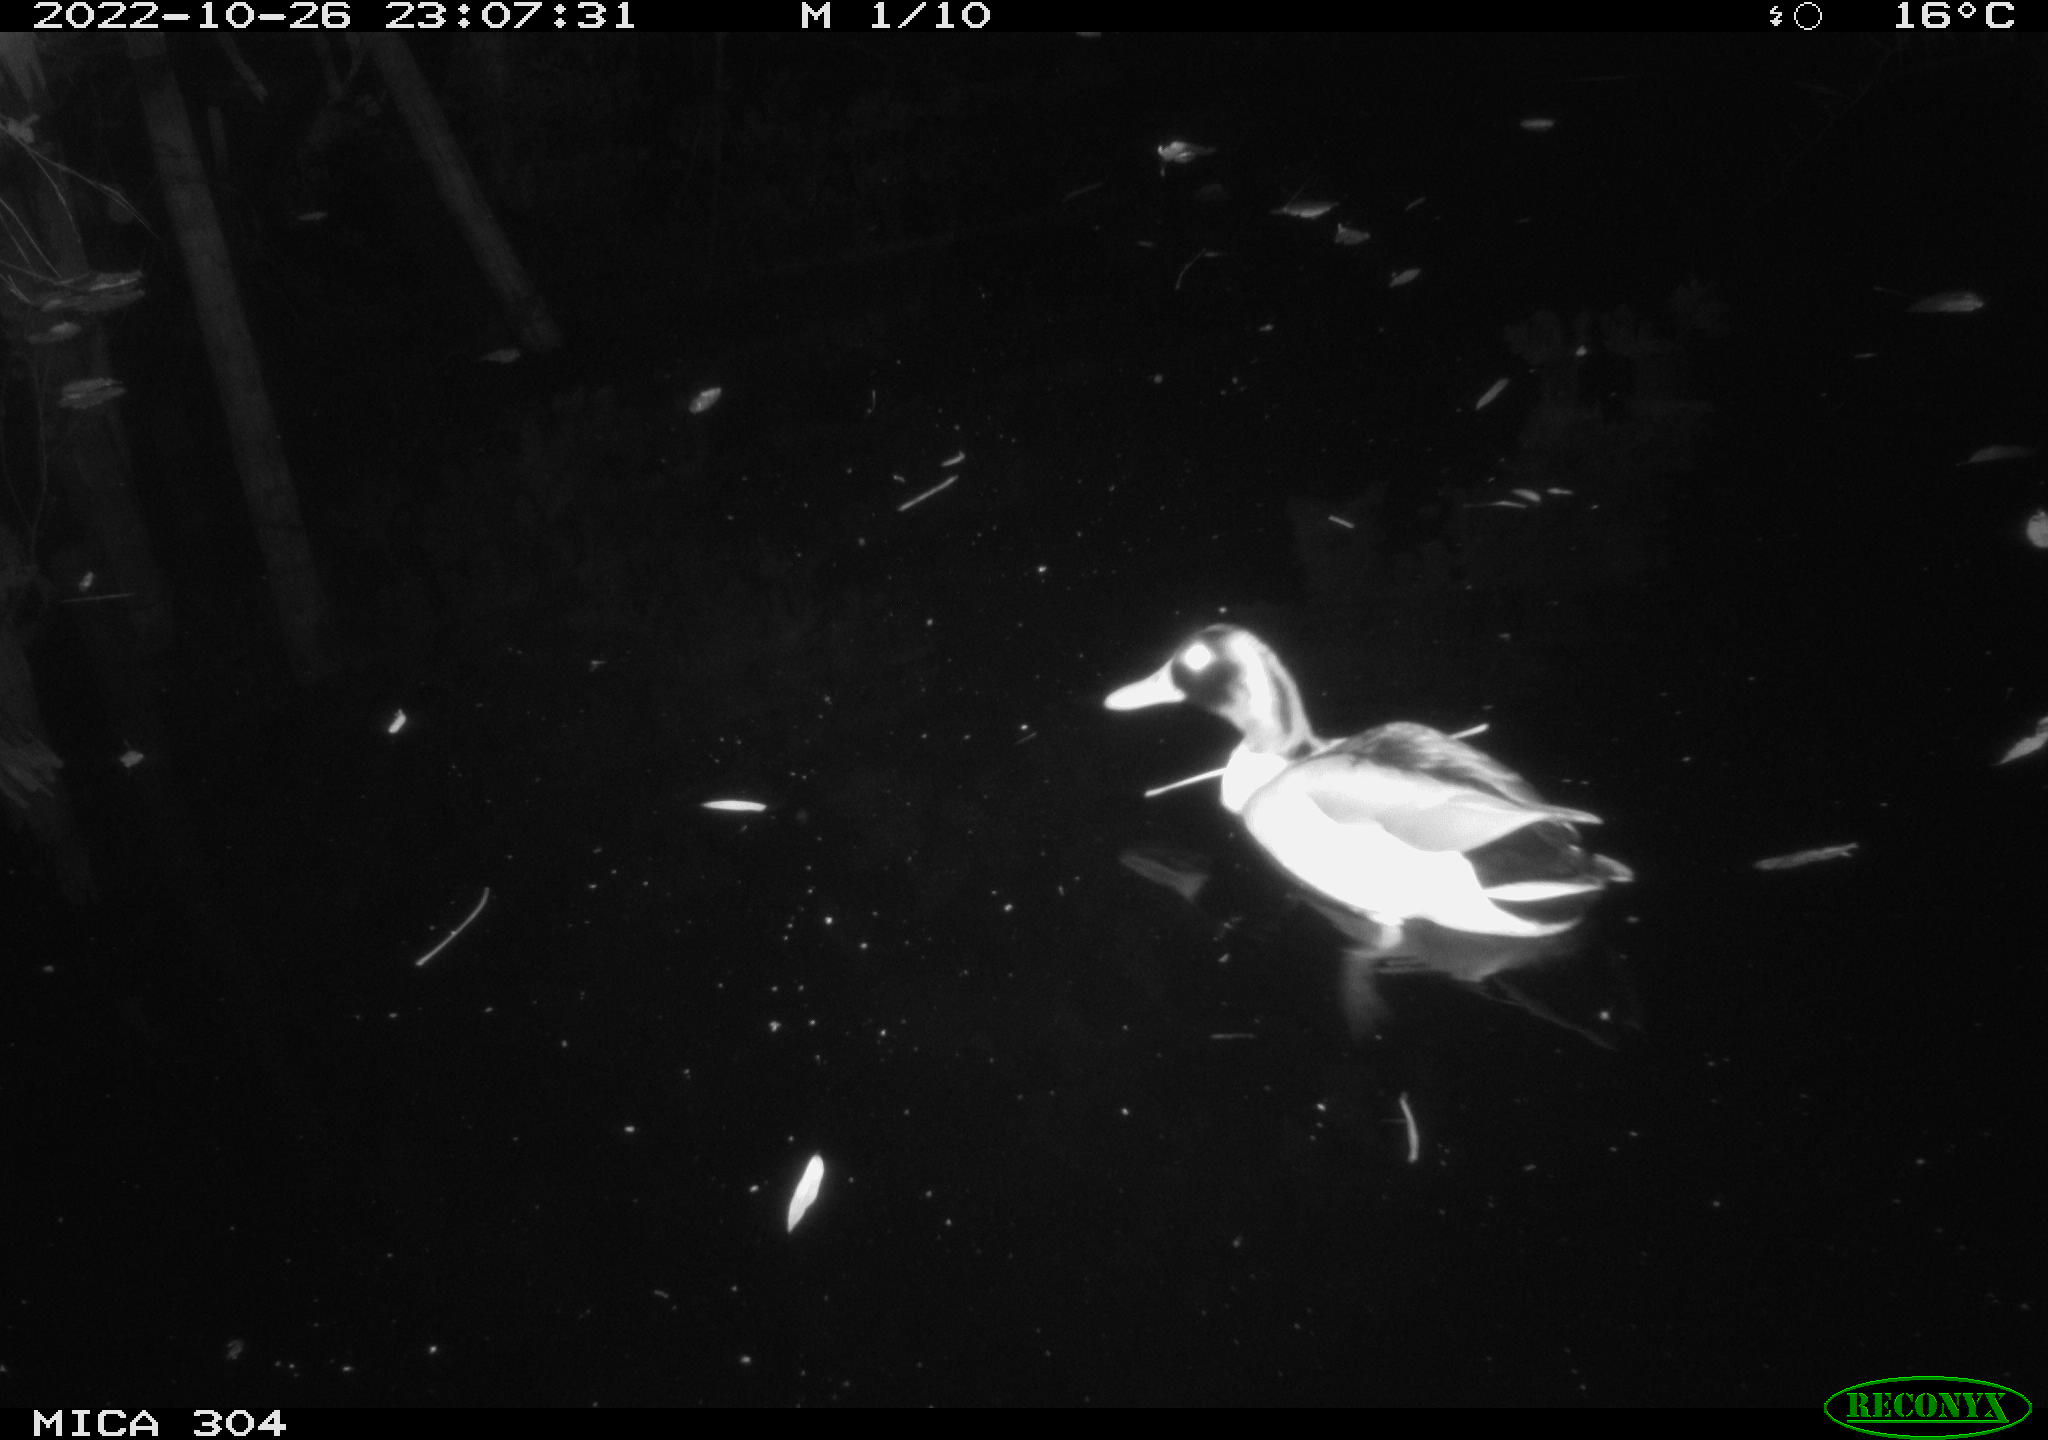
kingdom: Animalia
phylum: Chordata
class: Aves
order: Anseriformes
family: Anatidae
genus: Anas
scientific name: Anas
